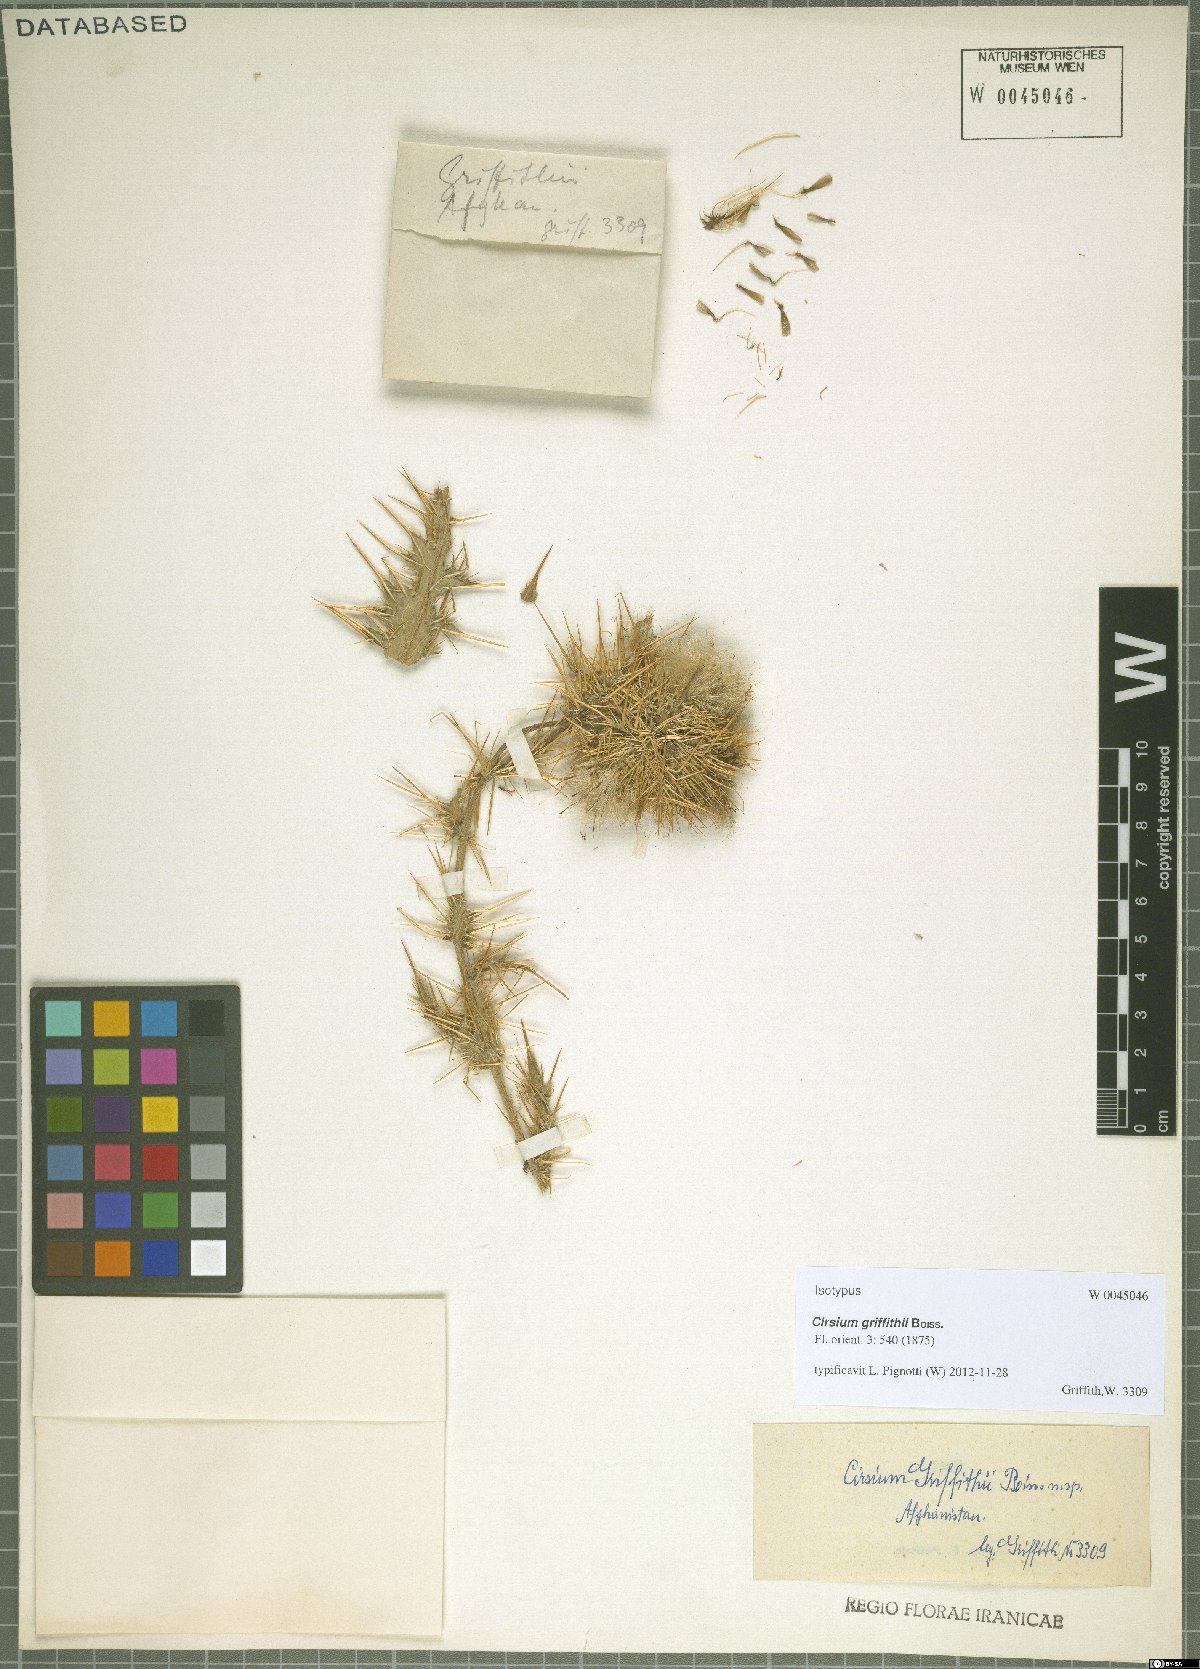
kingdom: Plantae
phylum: Tracheophyta
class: Magnoliopsida
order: Asterales
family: Asteraceae
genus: Lophiolepis
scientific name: Lophiolepis griffithii
